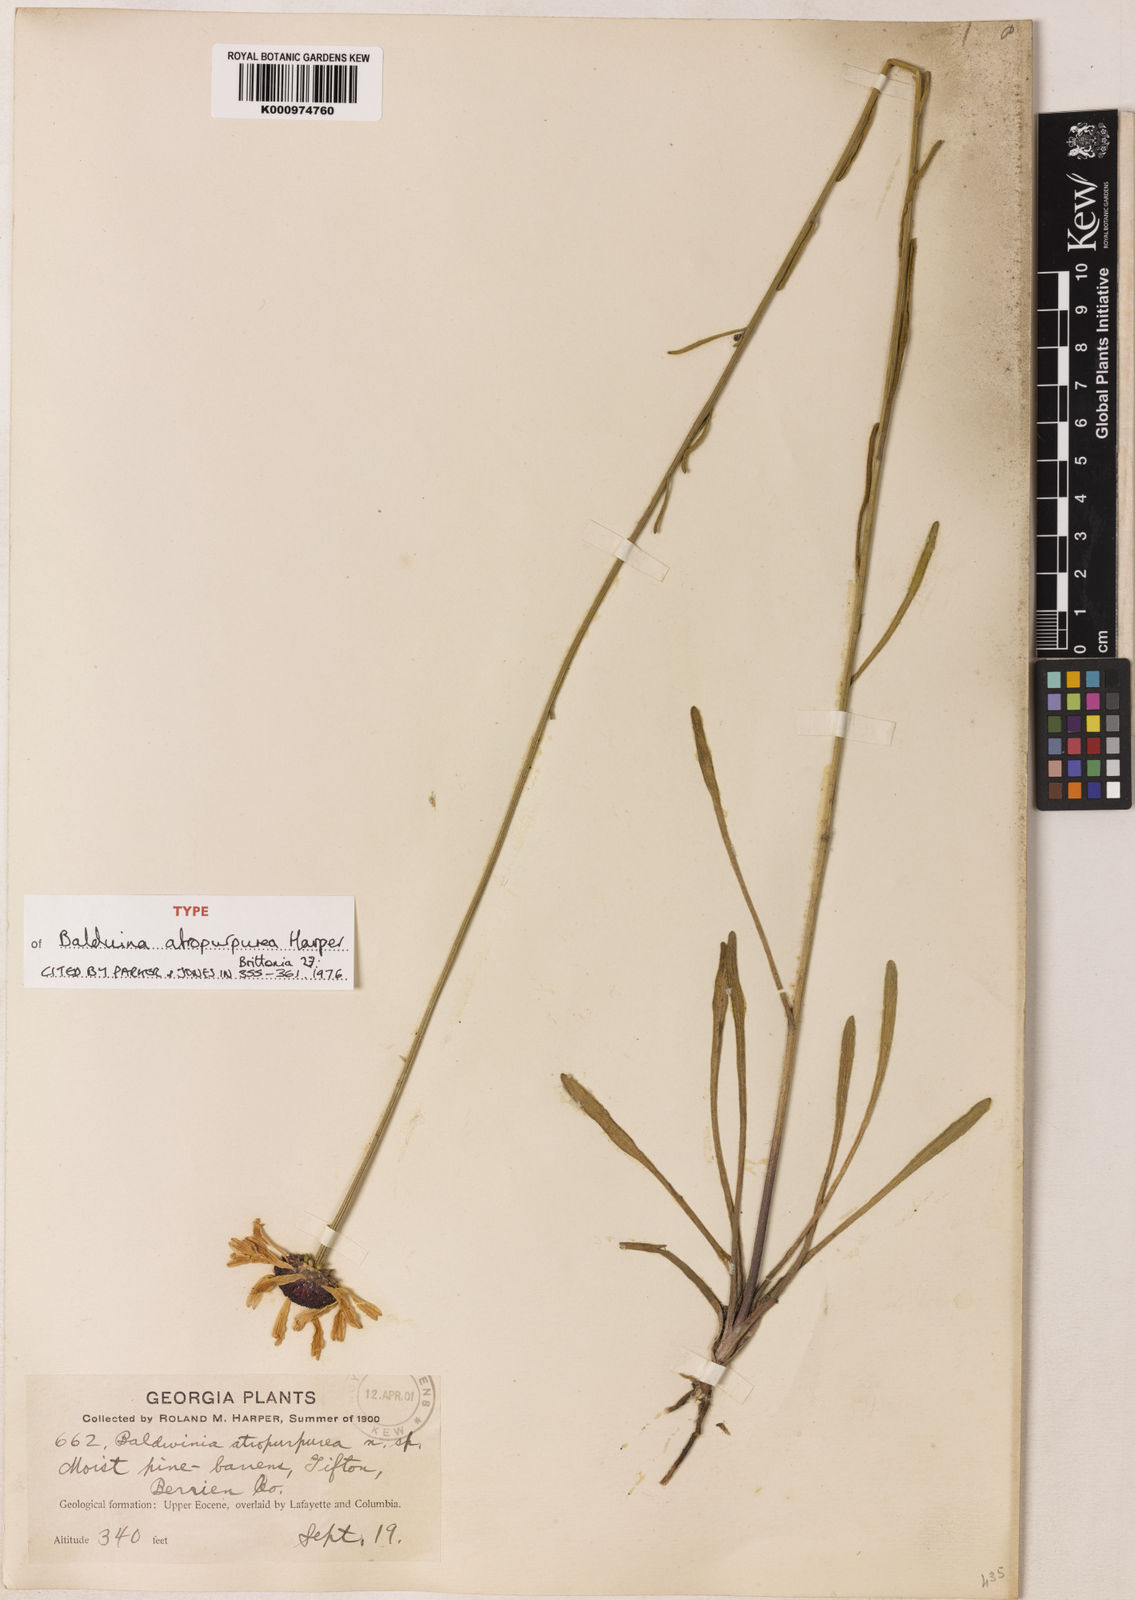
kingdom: Plantae
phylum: Tracheophyta
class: Magnoliopsida
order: Asterales
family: Asteraceae
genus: Balduina
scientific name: Balduina atropurpurea
